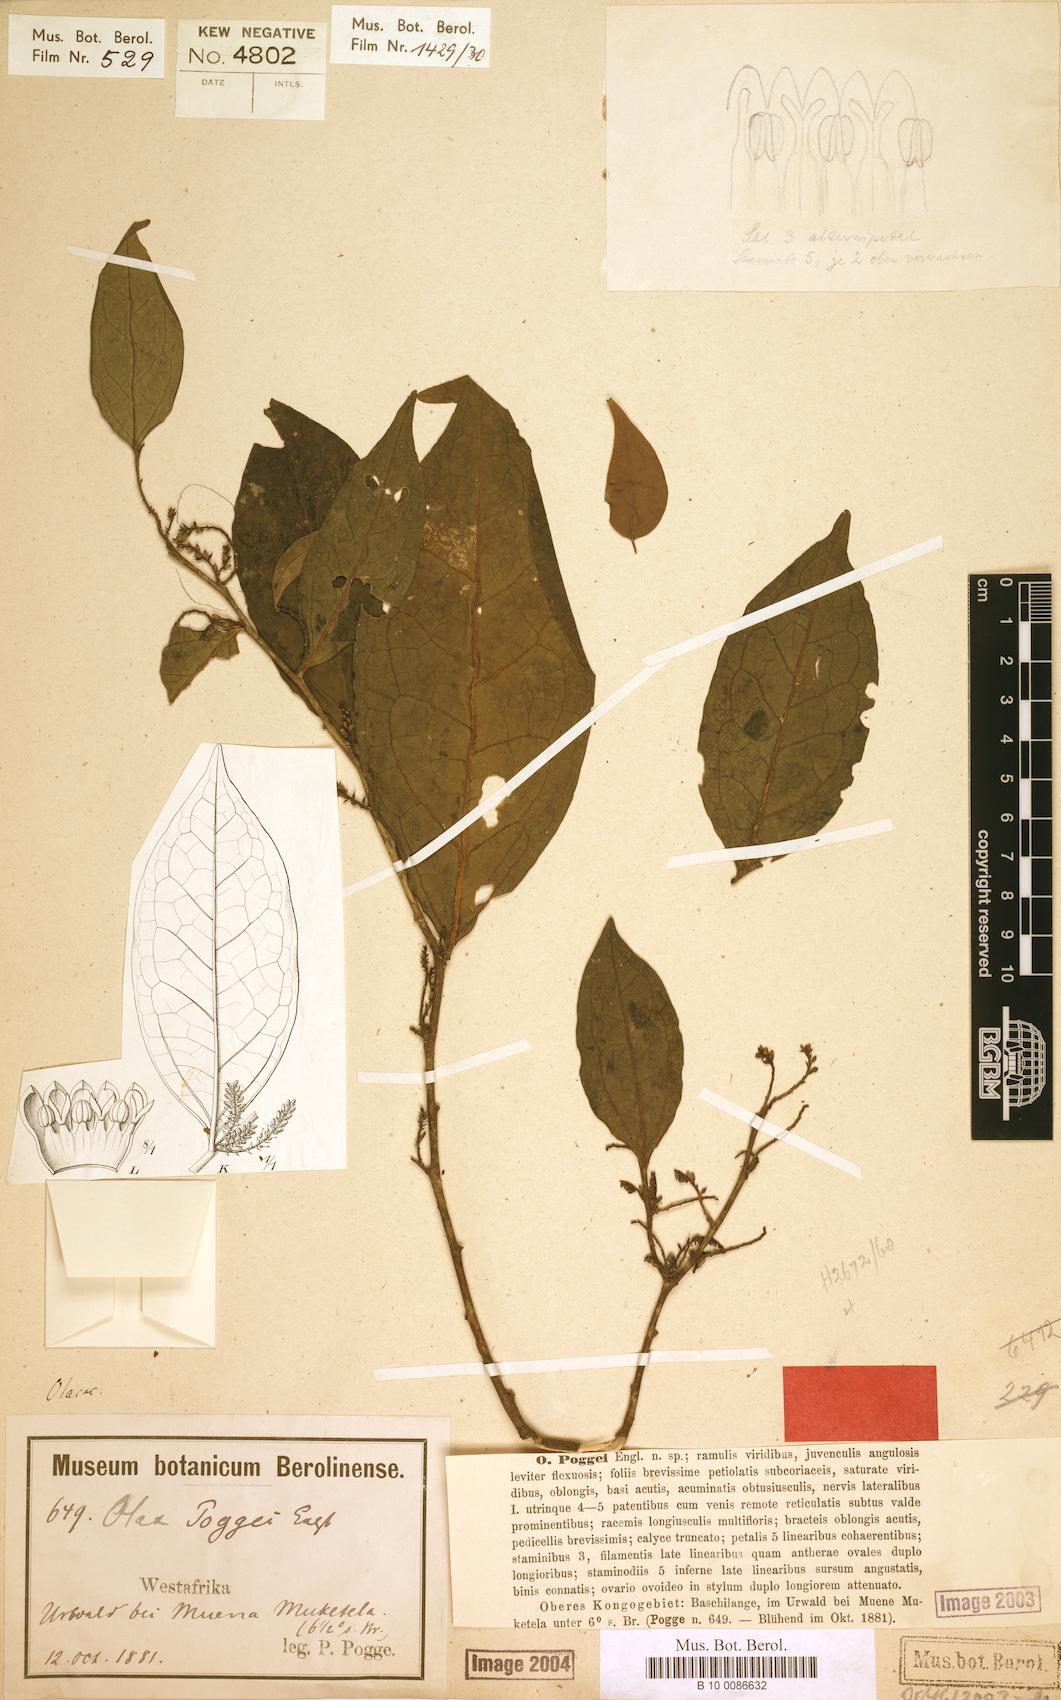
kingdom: Plantae
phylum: Tracheophyta
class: Magnoliopsida
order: Santalales
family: Olacaceae
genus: Olax
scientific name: Olax gambecola
